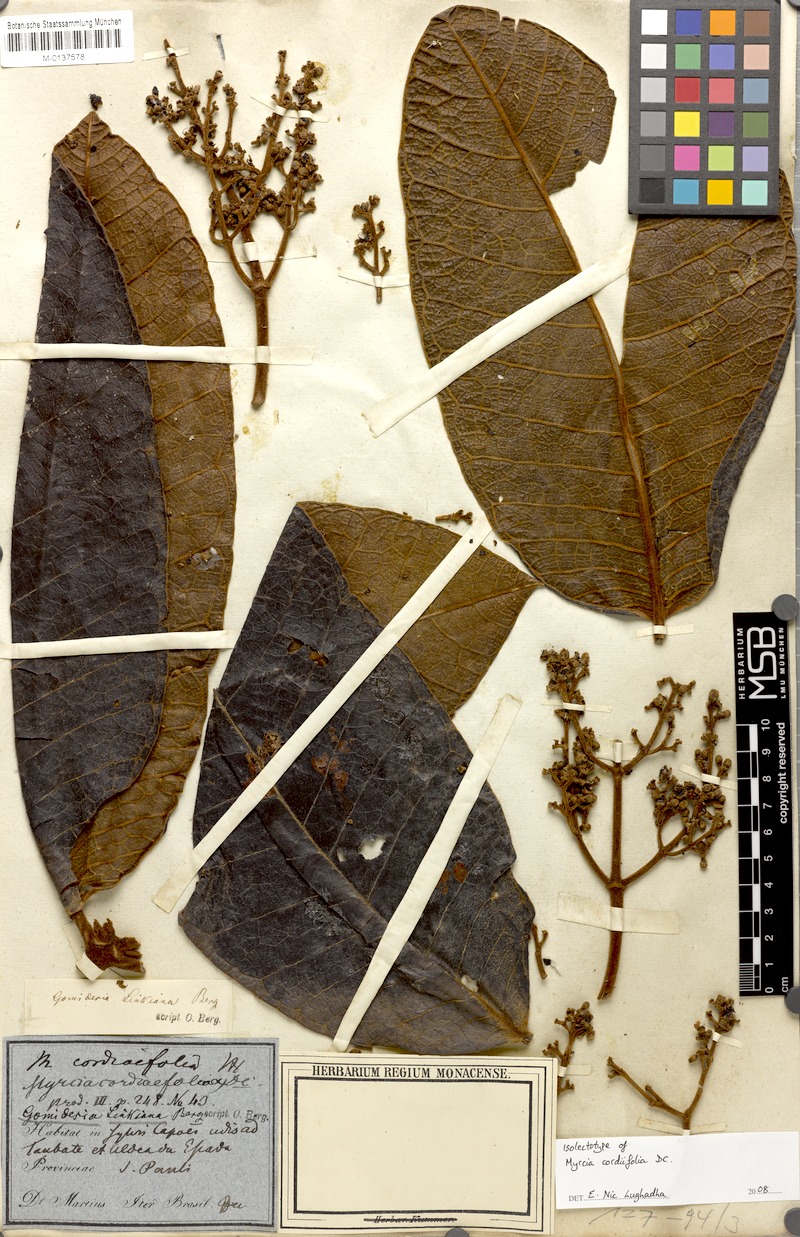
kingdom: Plantae
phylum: Tracheophyta
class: Magnoliopsida
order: Myrtales
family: Myrtaceae
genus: Myrcia
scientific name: Myrcia cordiifolia
